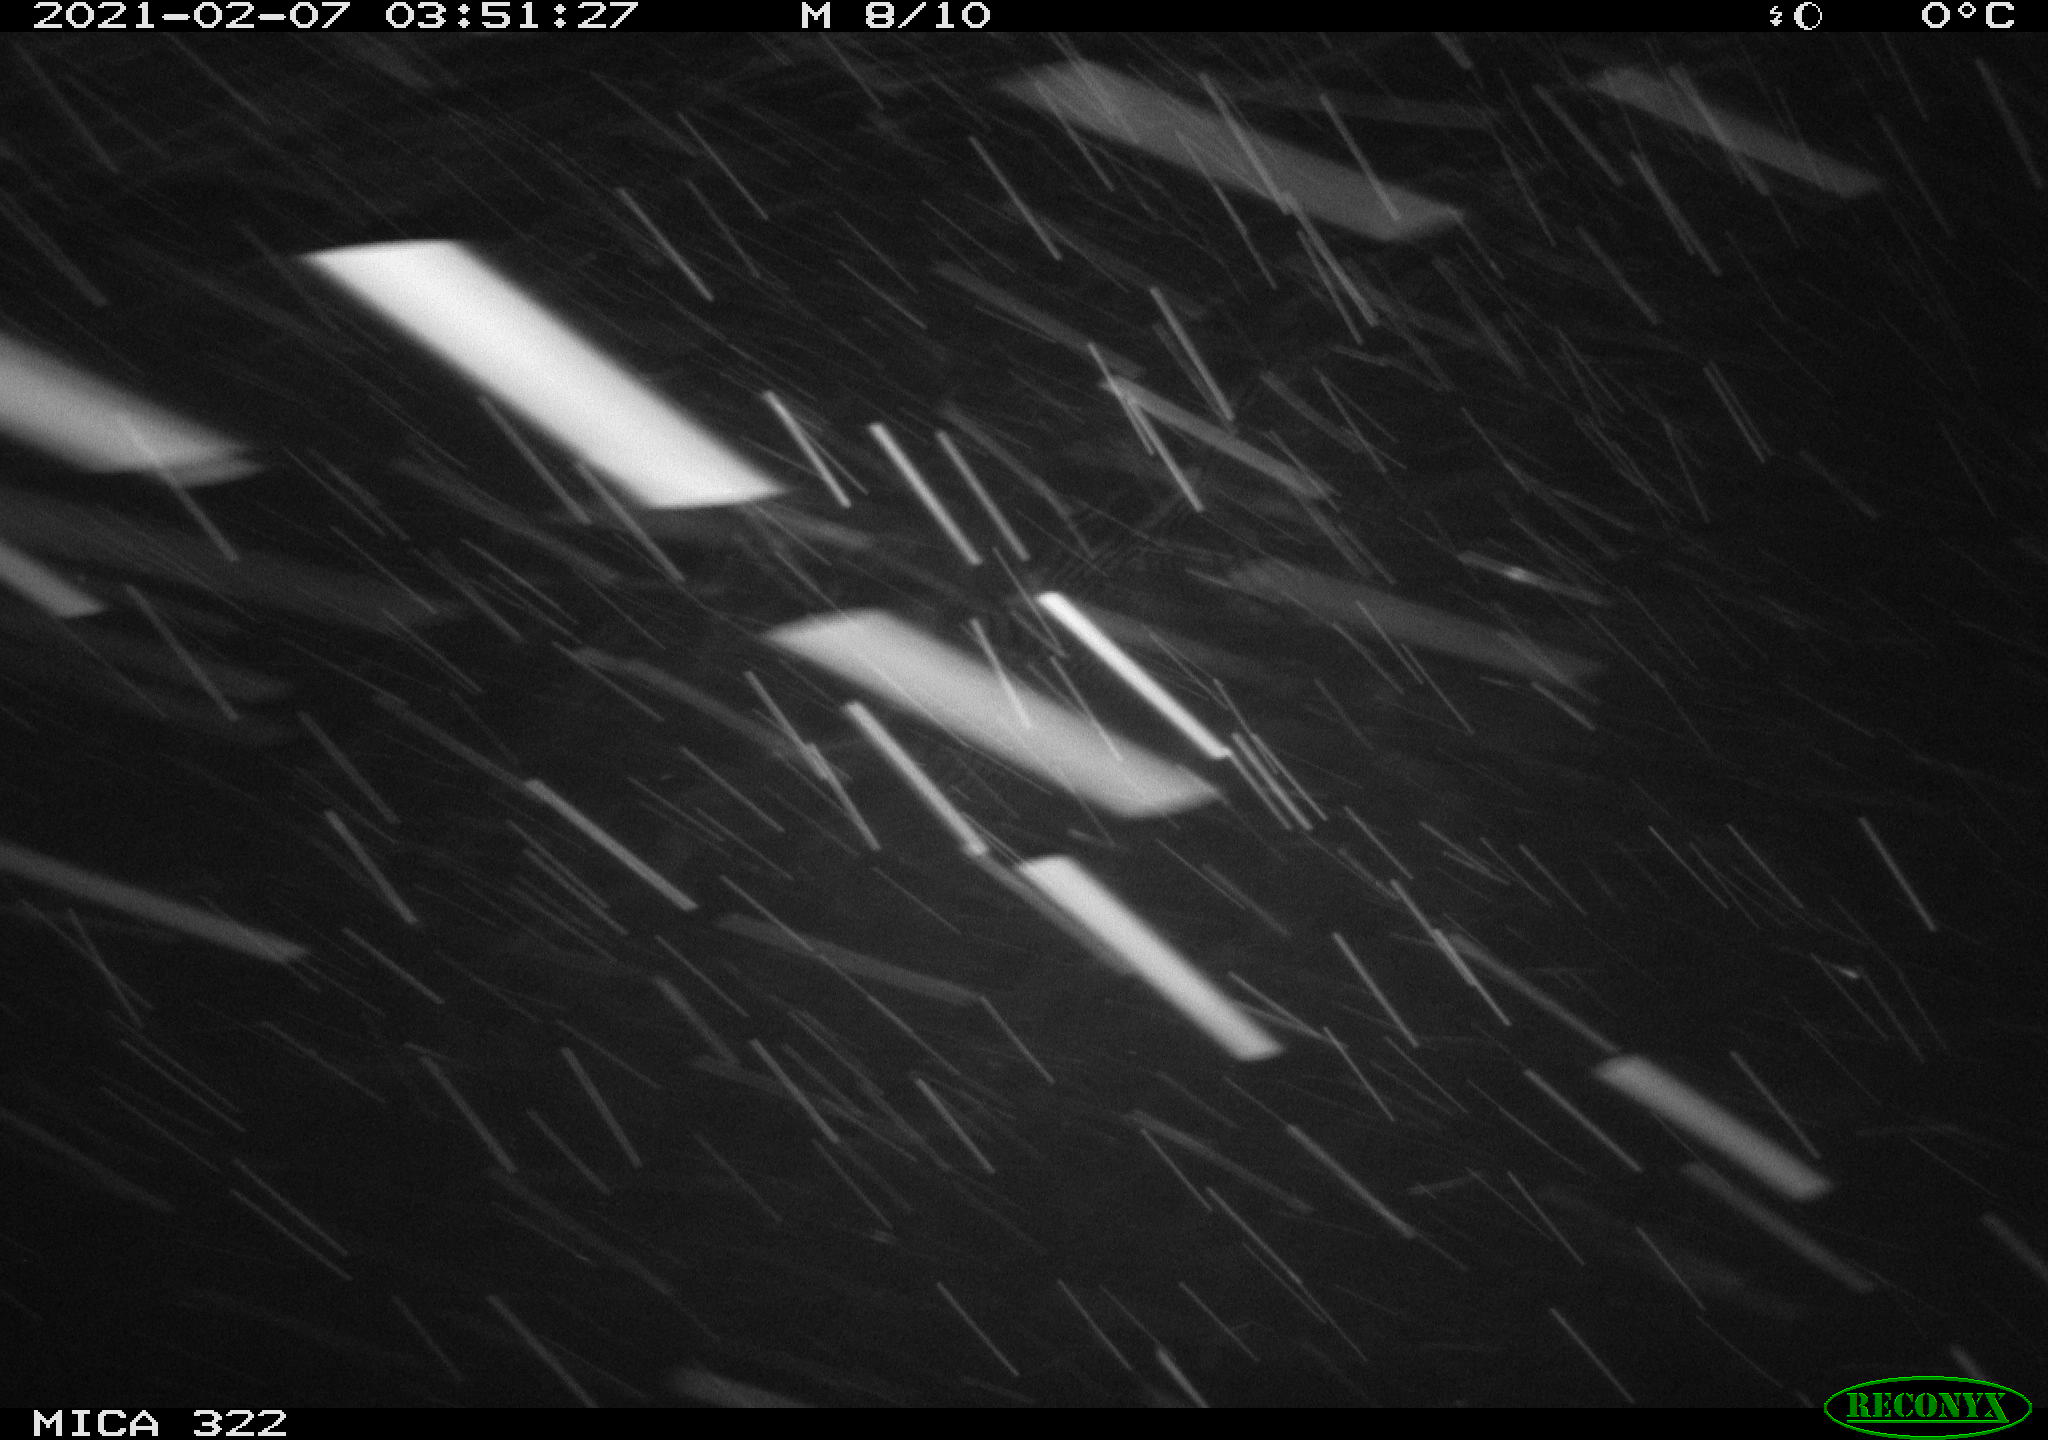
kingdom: Animalia
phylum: Chordata
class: Mammalia
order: Rodentia
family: Muridae
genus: Rattus
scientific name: Rattus norvegicus
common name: Brown rat
